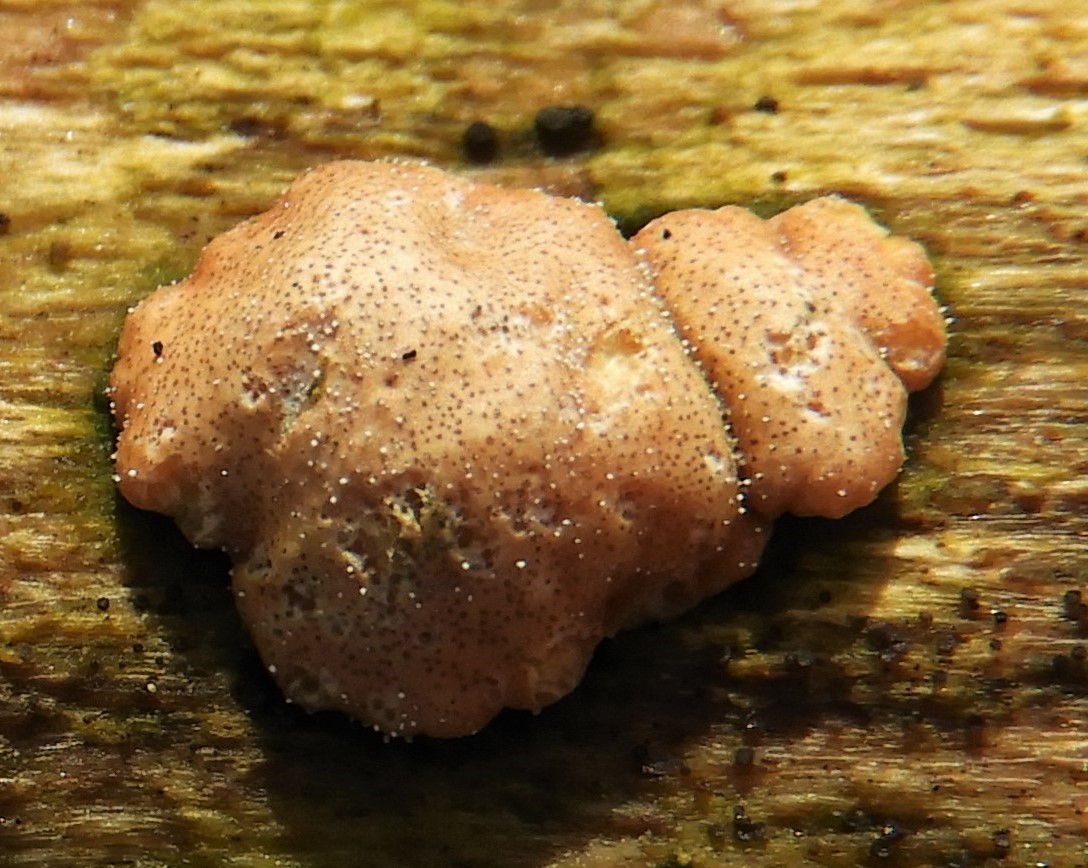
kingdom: Fungi
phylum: Ascomycota
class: Sordariomycetes
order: Hypocreales
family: Hypocreaceae
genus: Trichoderma
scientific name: Trichoderma europaeum
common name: rosabrun kødkerne
